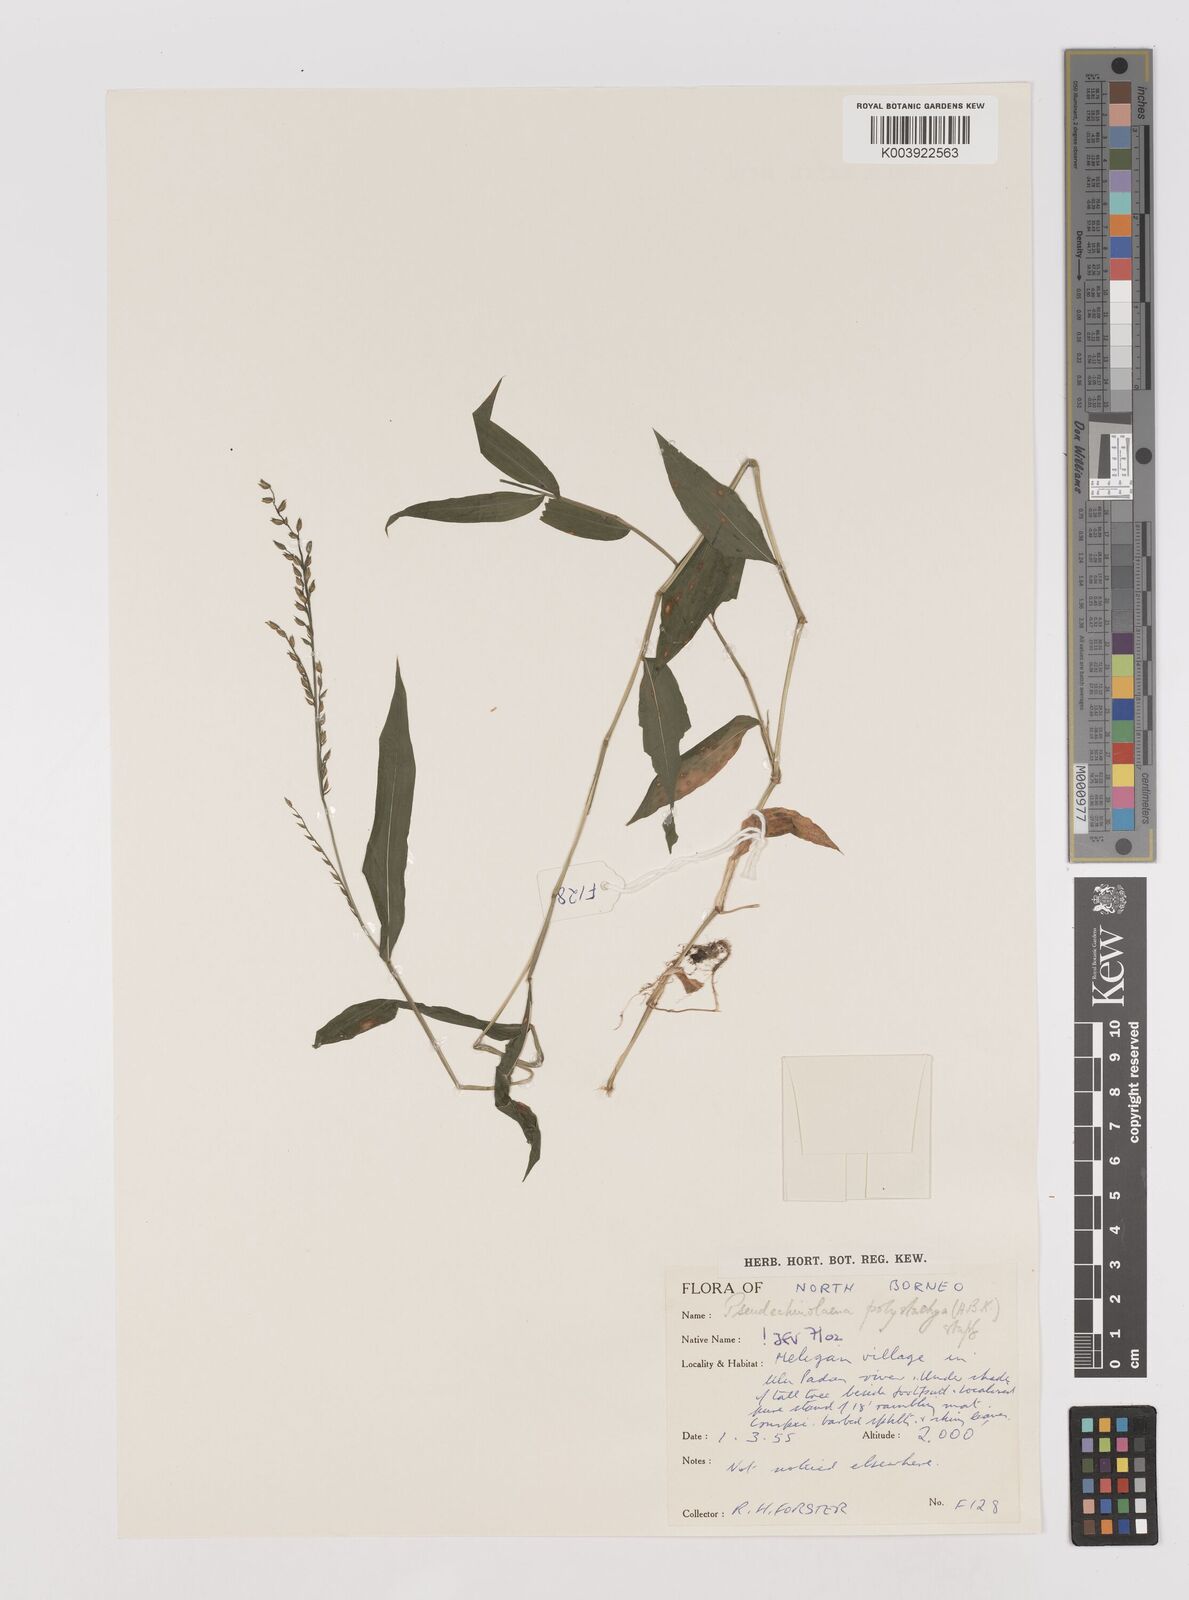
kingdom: Plantae
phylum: Tracheophyta
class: Liliopsida
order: Poales
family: Poaceae
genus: Pseudechinolaena
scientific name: Pseudechinolaena polystachya
